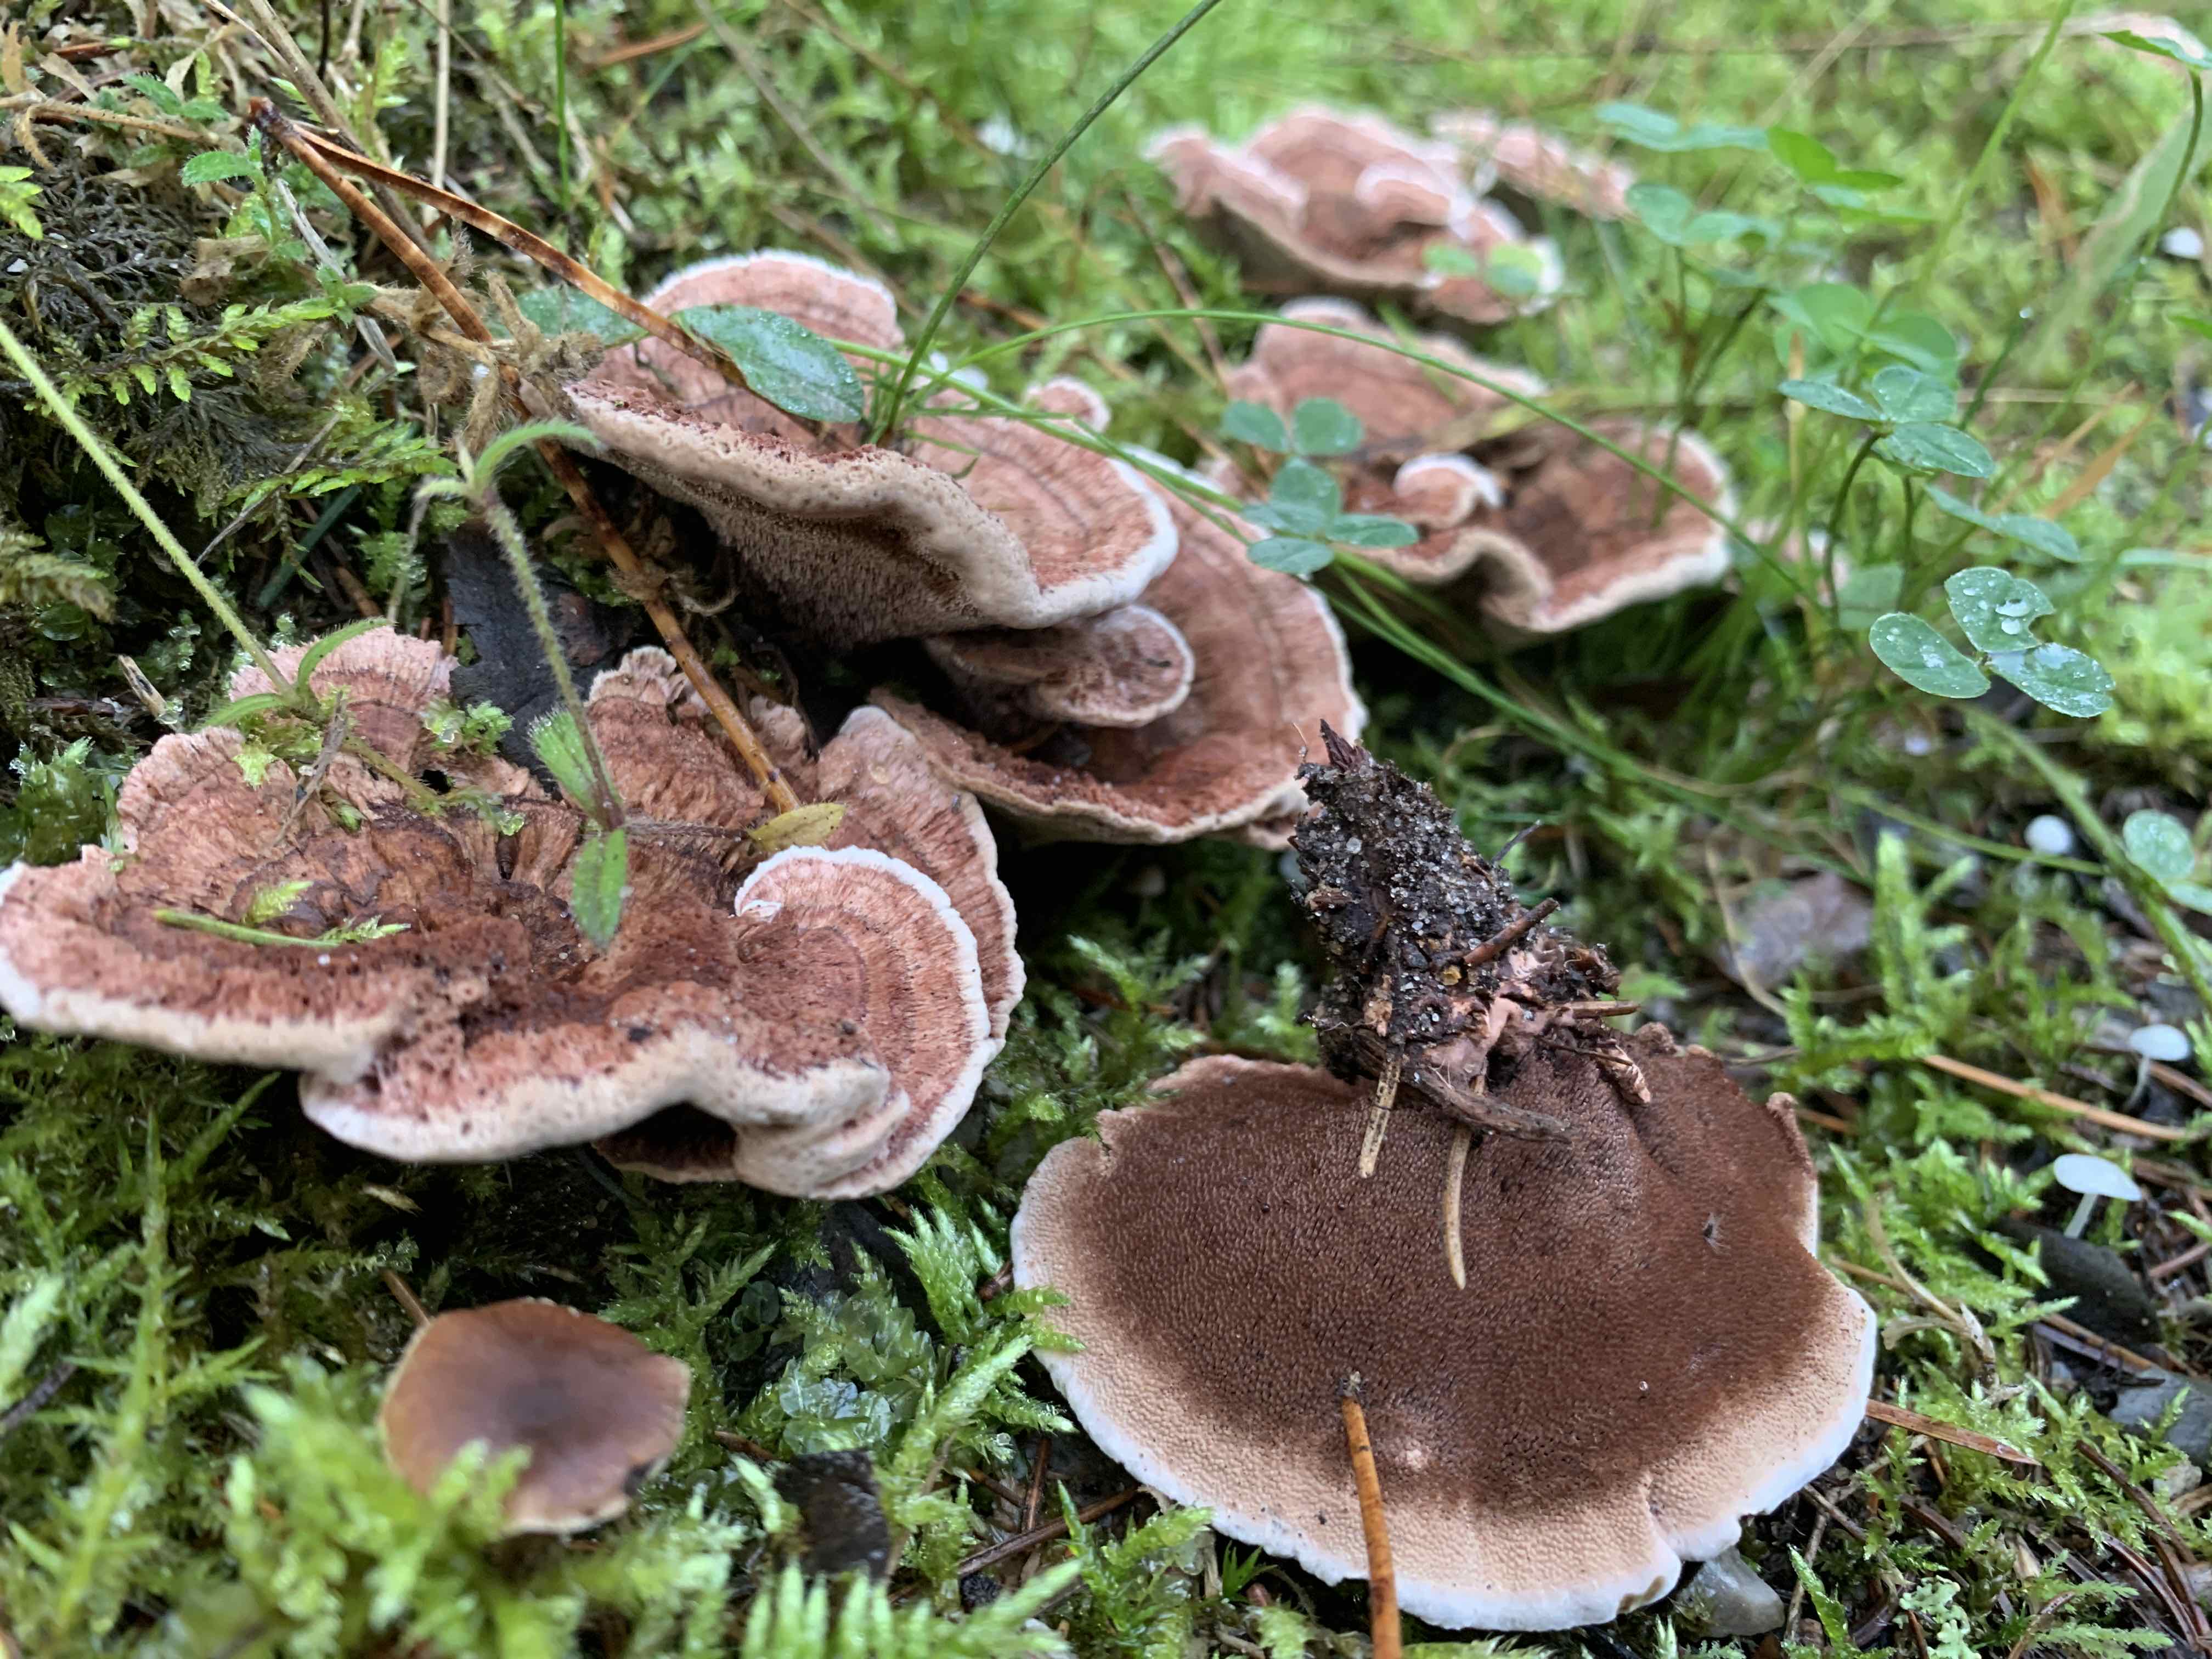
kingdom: Fungi
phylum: Basidiomycota
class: Agaricomycetes
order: Thelephorales
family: Bankeraceae
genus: Hydnellum
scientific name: Hydnellum concrescens
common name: bæltet korkpigsvamp
